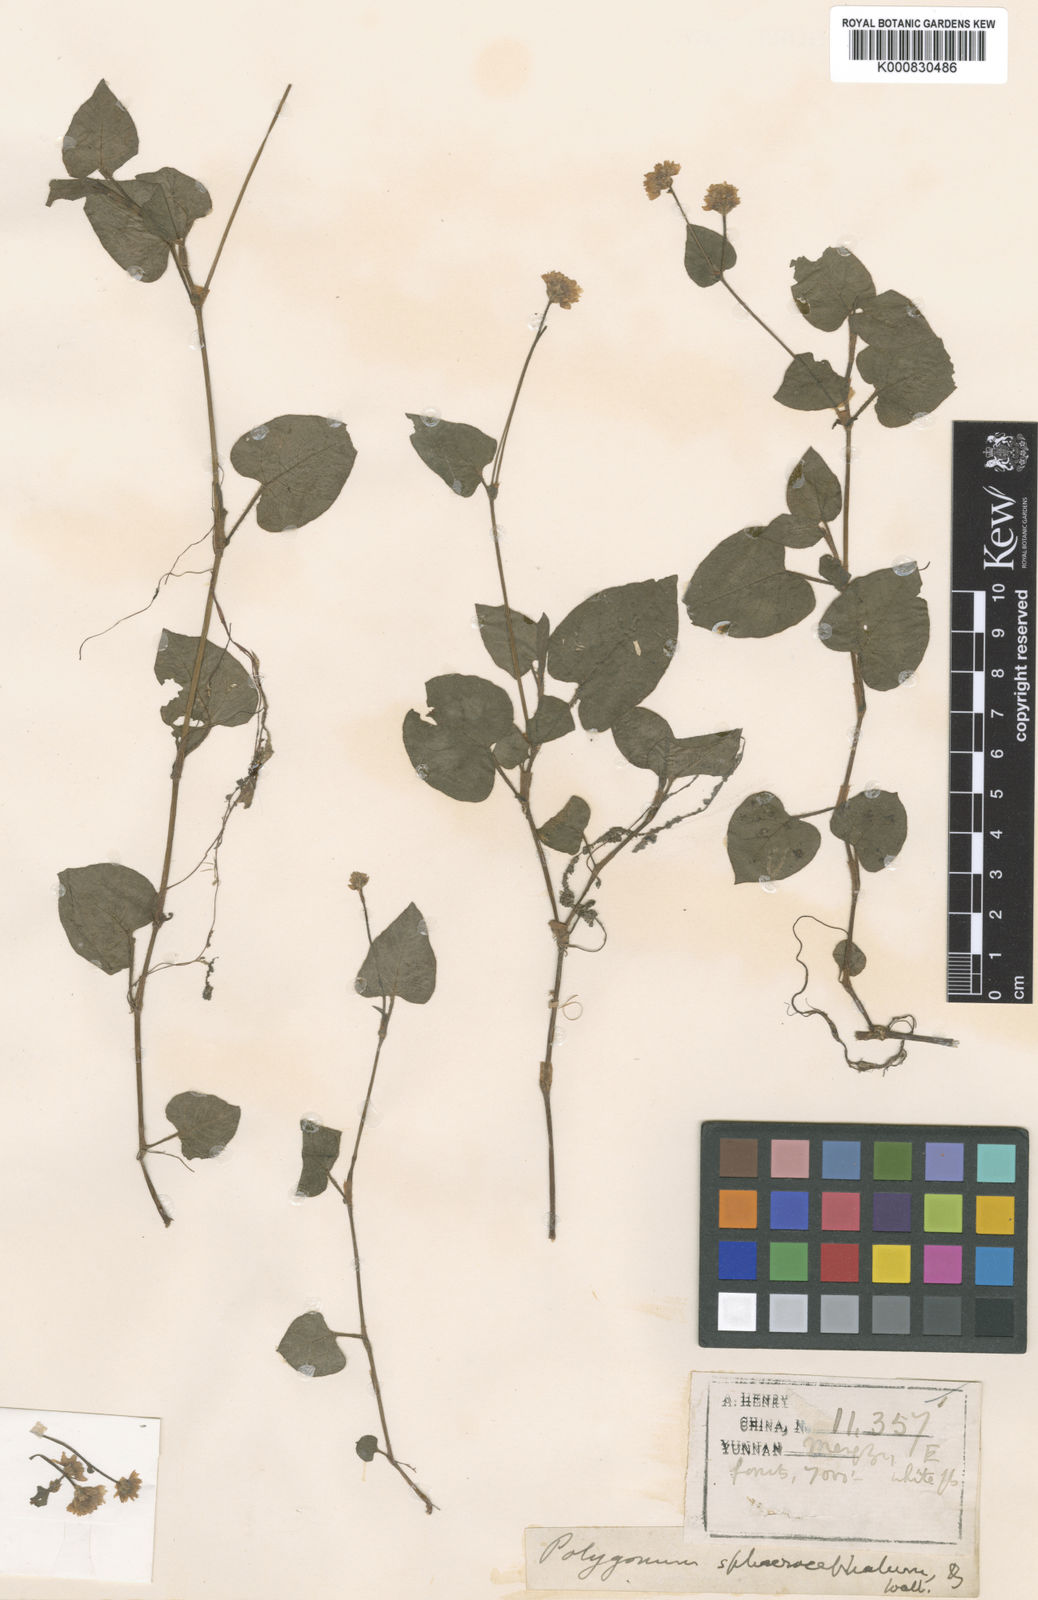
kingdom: Plantae
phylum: Tracheophyta
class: Magnoliopsida
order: Caryophyllales
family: Polygonaceae
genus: Persicaria
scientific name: Persicaria strindbergii
